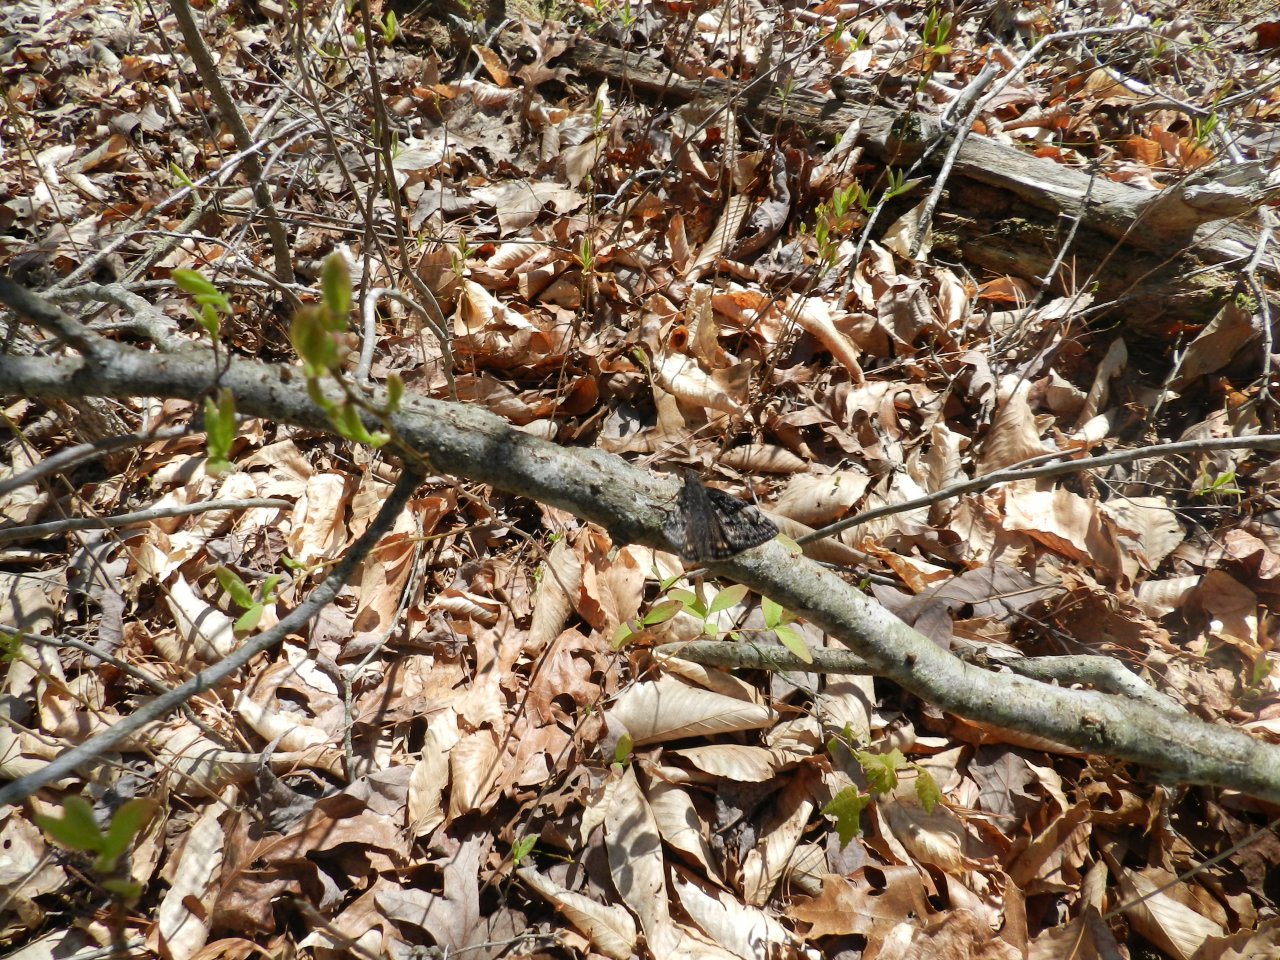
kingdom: Animalia
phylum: Arthropoda
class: Insecta
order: Lepidoptera
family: Hesperiidae
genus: Gesta
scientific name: Gesta
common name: Juvenal's Duskywing
